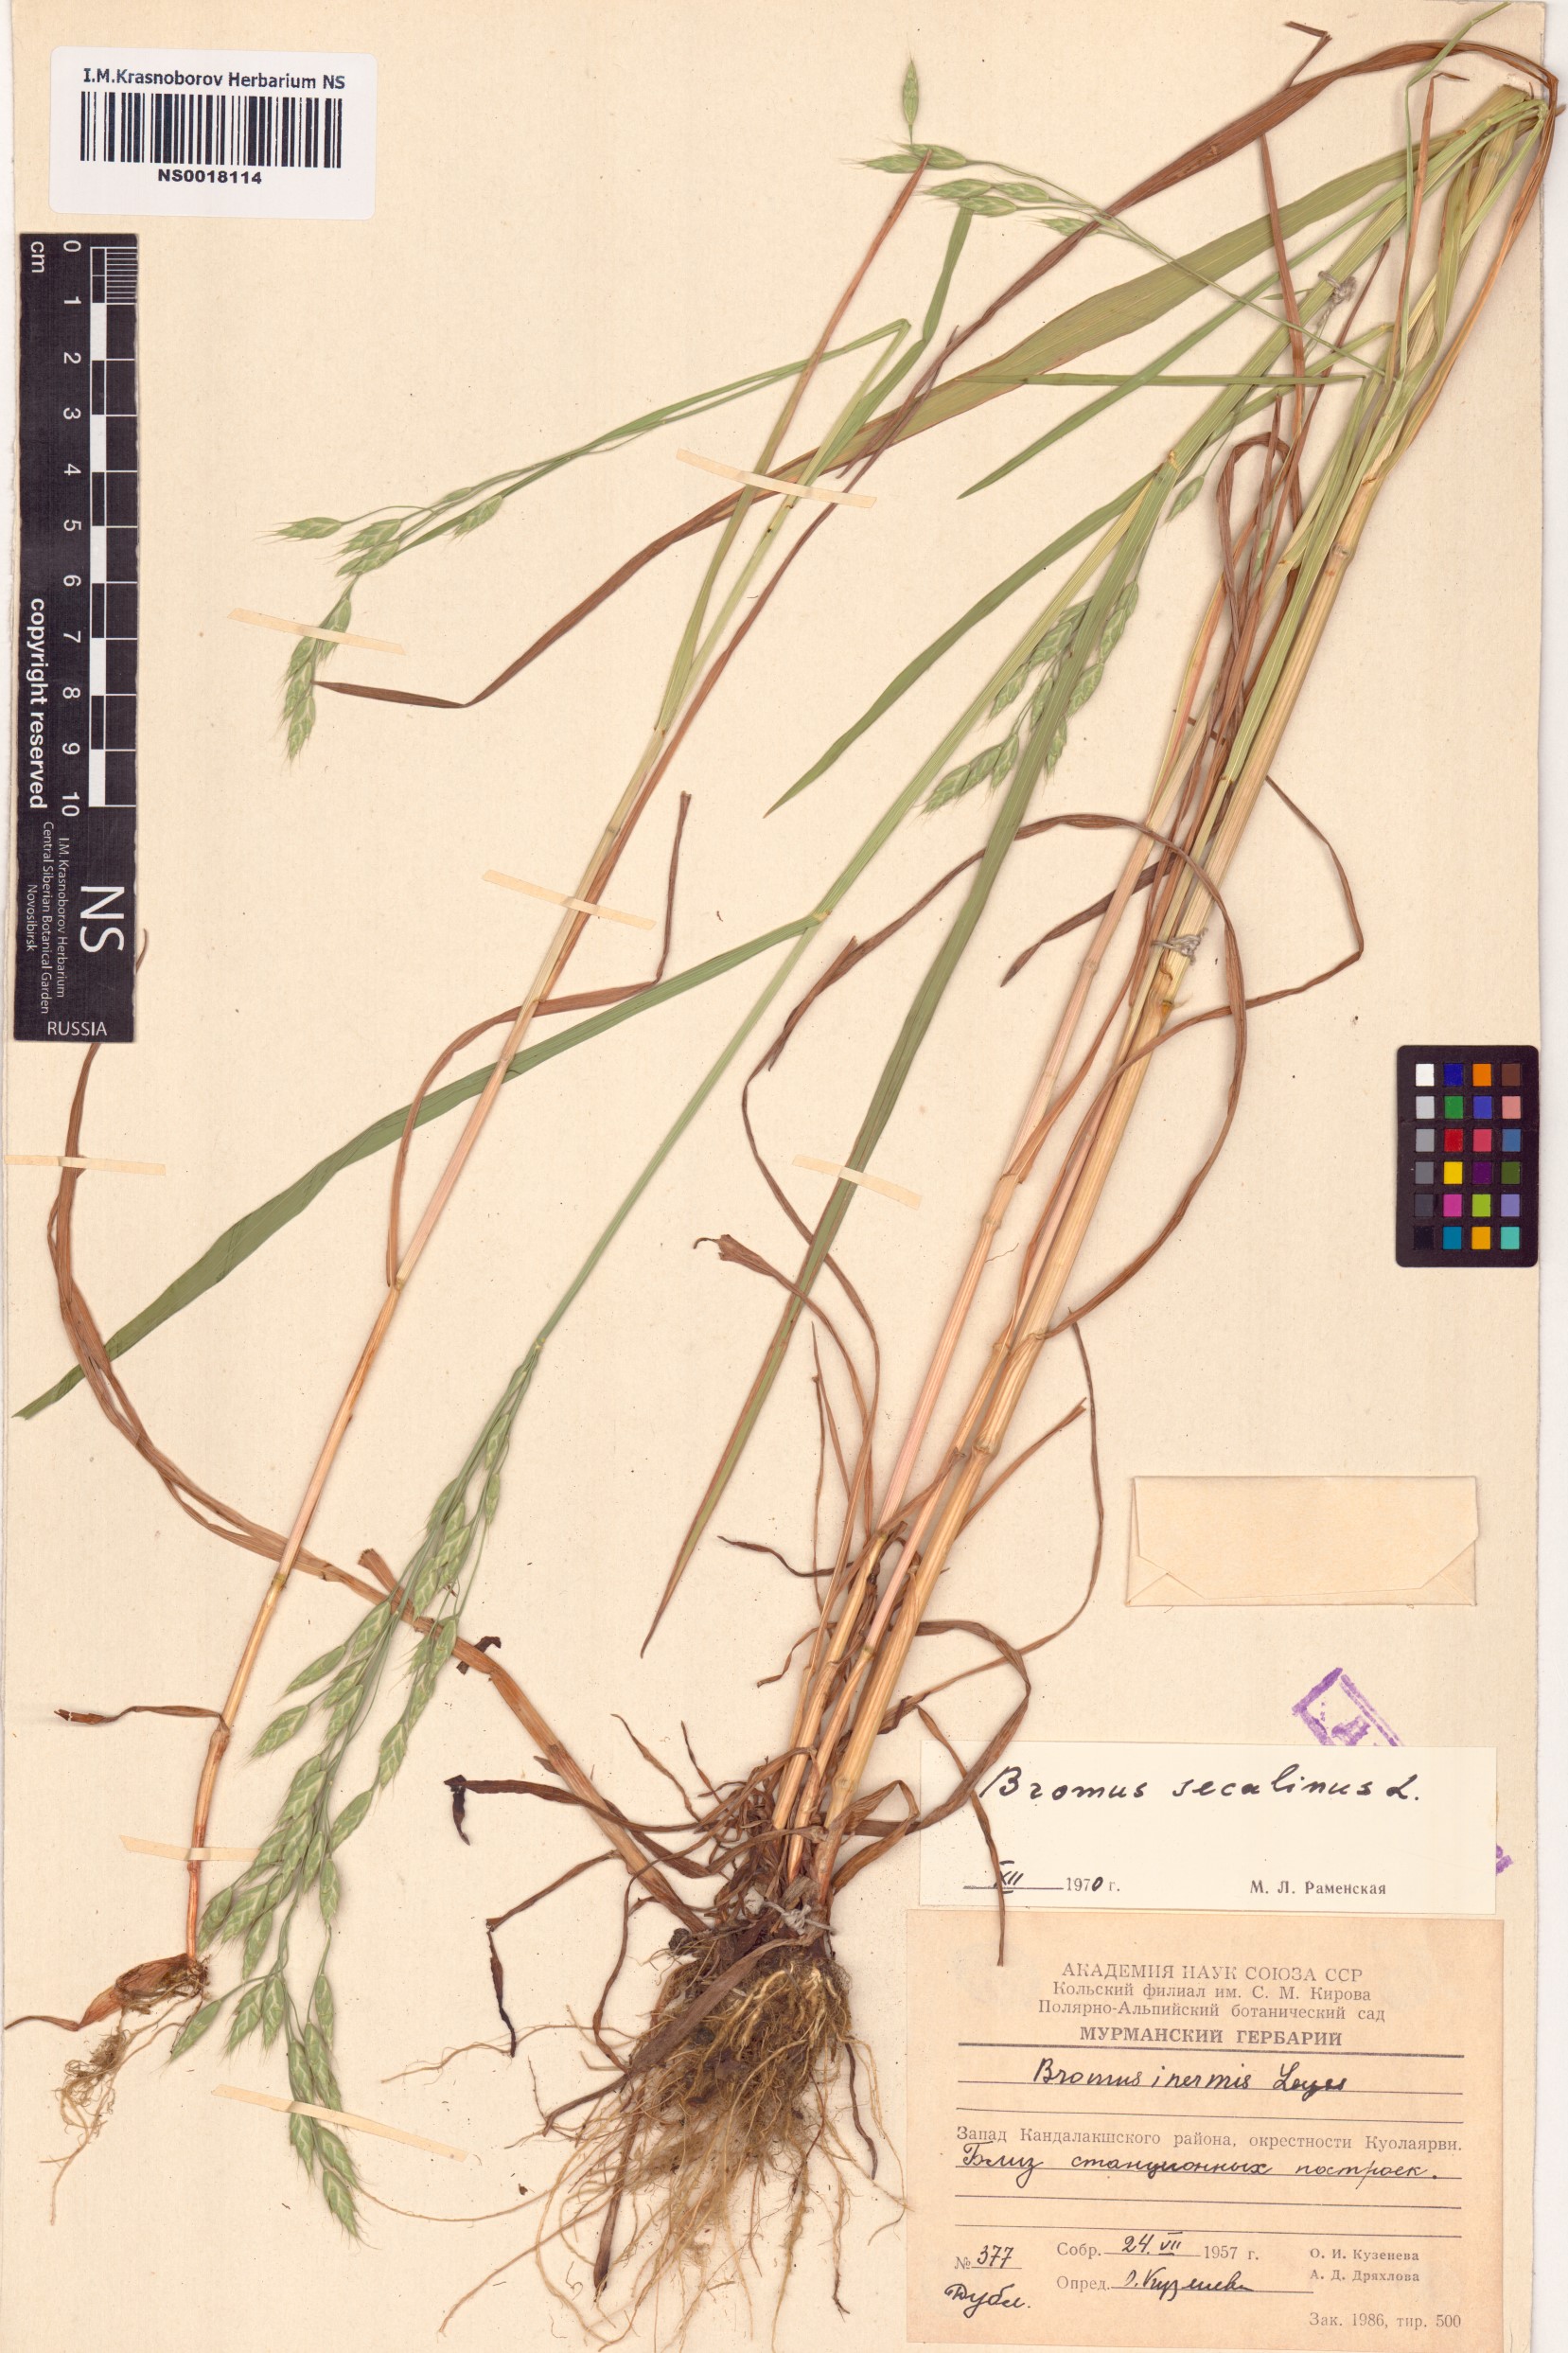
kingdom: Plantae
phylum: Tracheophyta
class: Liliopsida
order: Poales
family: Poaceae
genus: Bromus
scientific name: Bromus secalinus
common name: Rye brome
